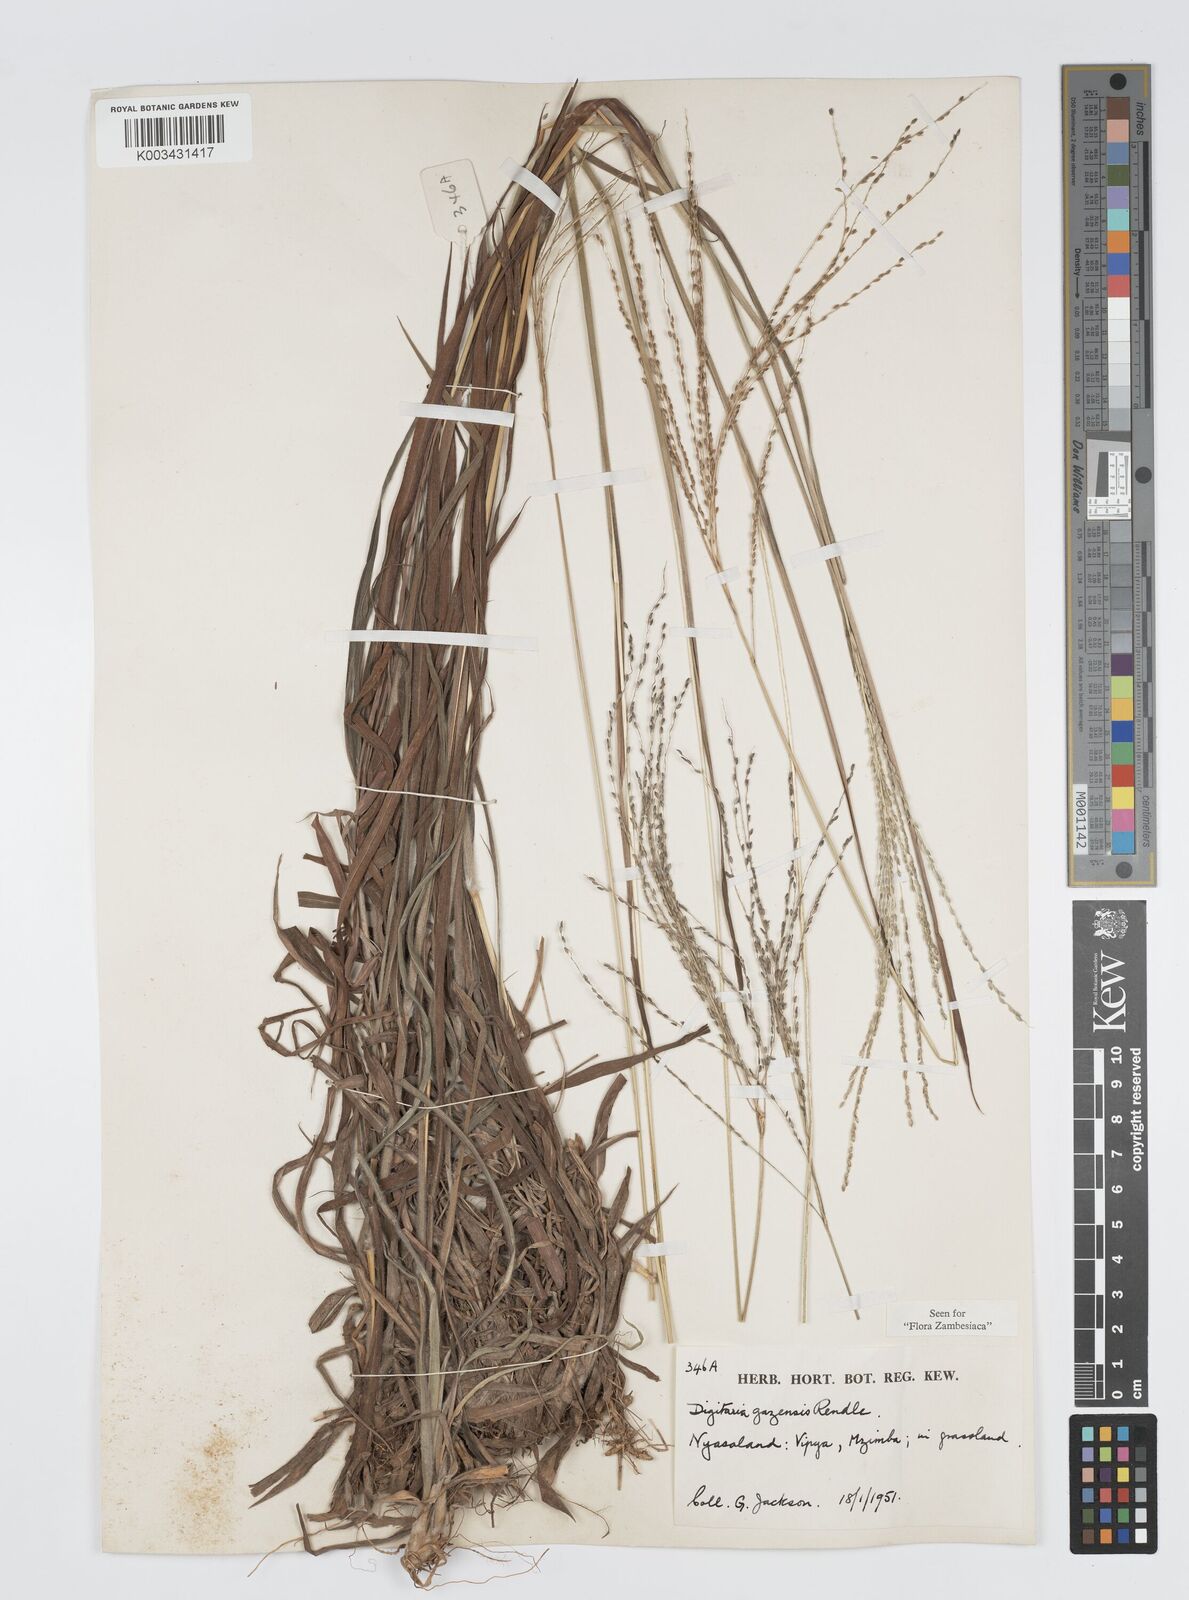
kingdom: Plantae
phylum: Tracheophyta
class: Liliopsida
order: Poales
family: Poaceae
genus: Digitaria
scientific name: Digitaria gazensis
